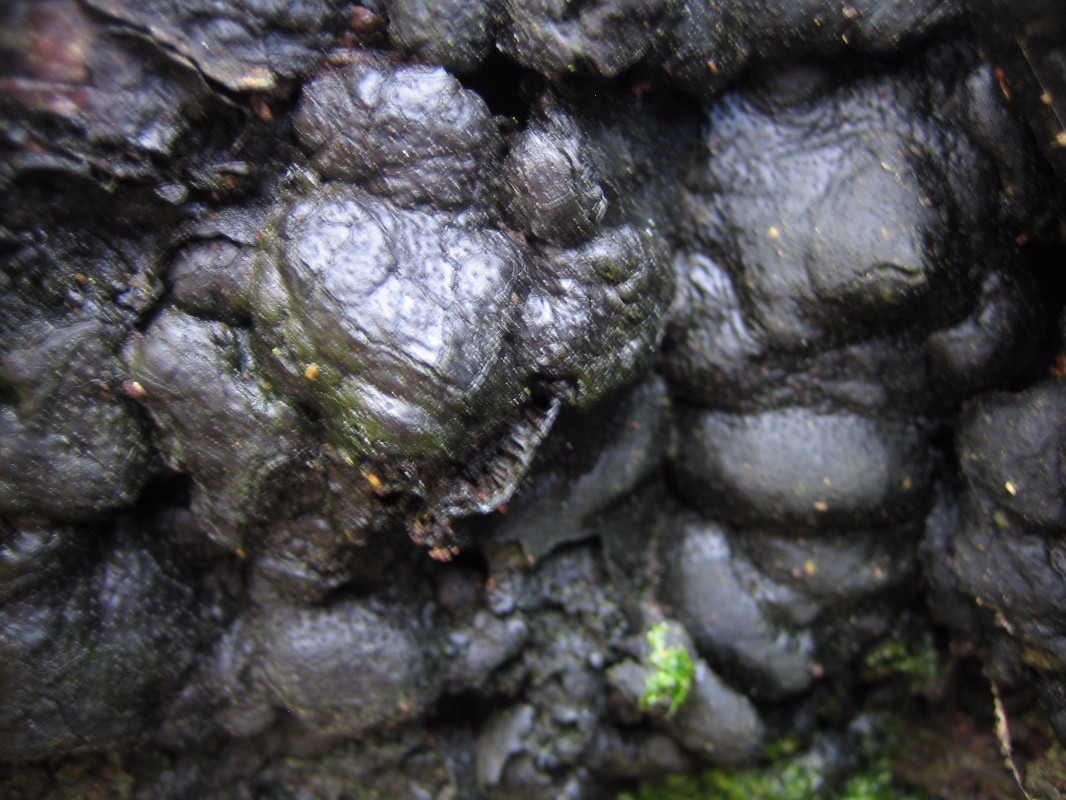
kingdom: Fungi
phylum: Ascomycota
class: Sordariomycetes
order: Xylariales
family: Xylariaceae
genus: Kretzschmaria
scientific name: Kretzschmaria deusta
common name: stor kulsvamp
